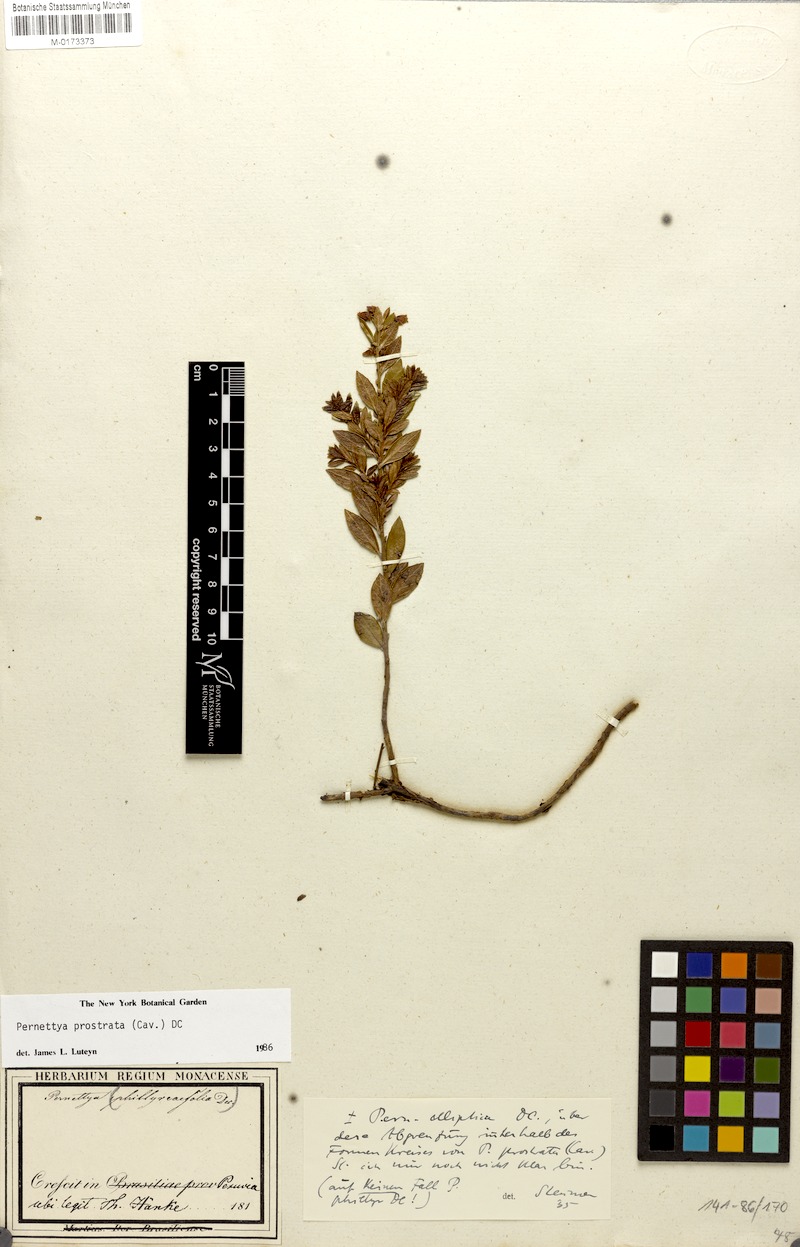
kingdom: Plantae
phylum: Tracheophyta
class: Magnoliopsida
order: Ericales
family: Ericaceae
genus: Gaultheria
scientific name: Gaultheria myrsinoides
